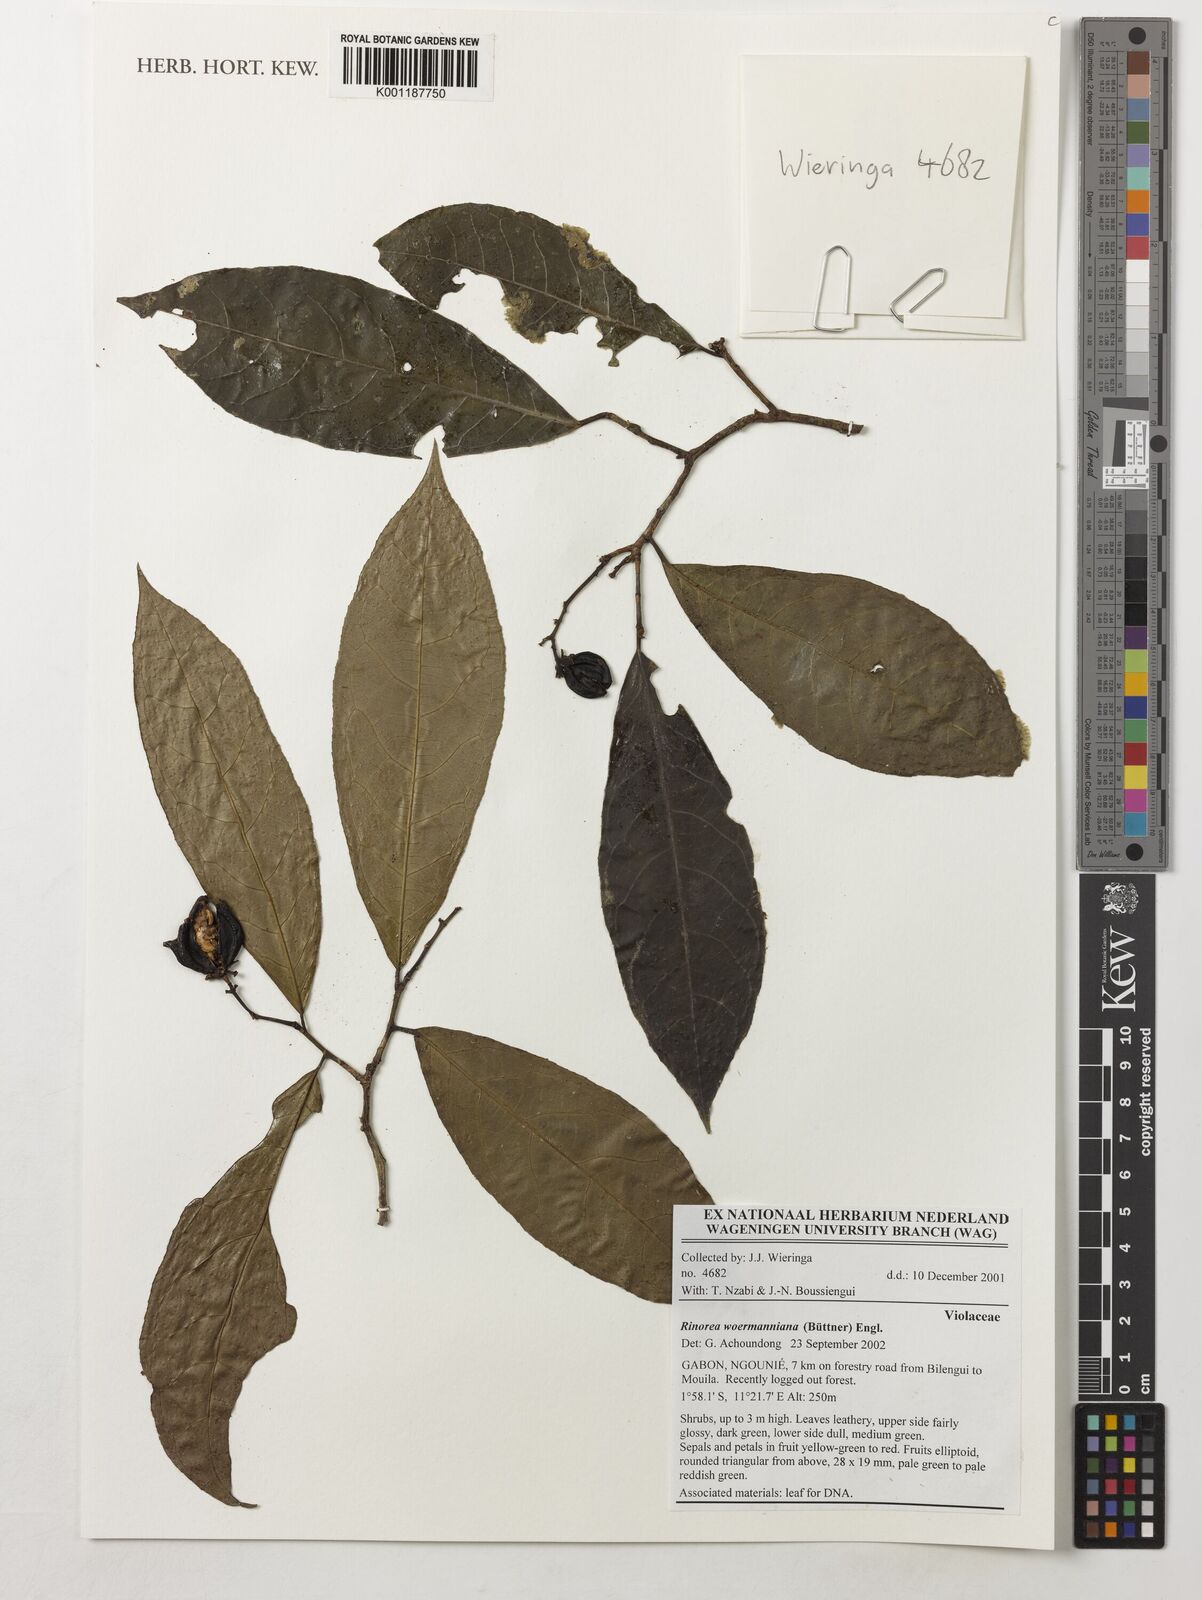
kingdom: Plantae
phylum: Tracheophyta
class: Magnoliopsida
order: Malpighiales
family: Violaceae
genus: Rinorea
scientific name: Rinorea woermanniana
